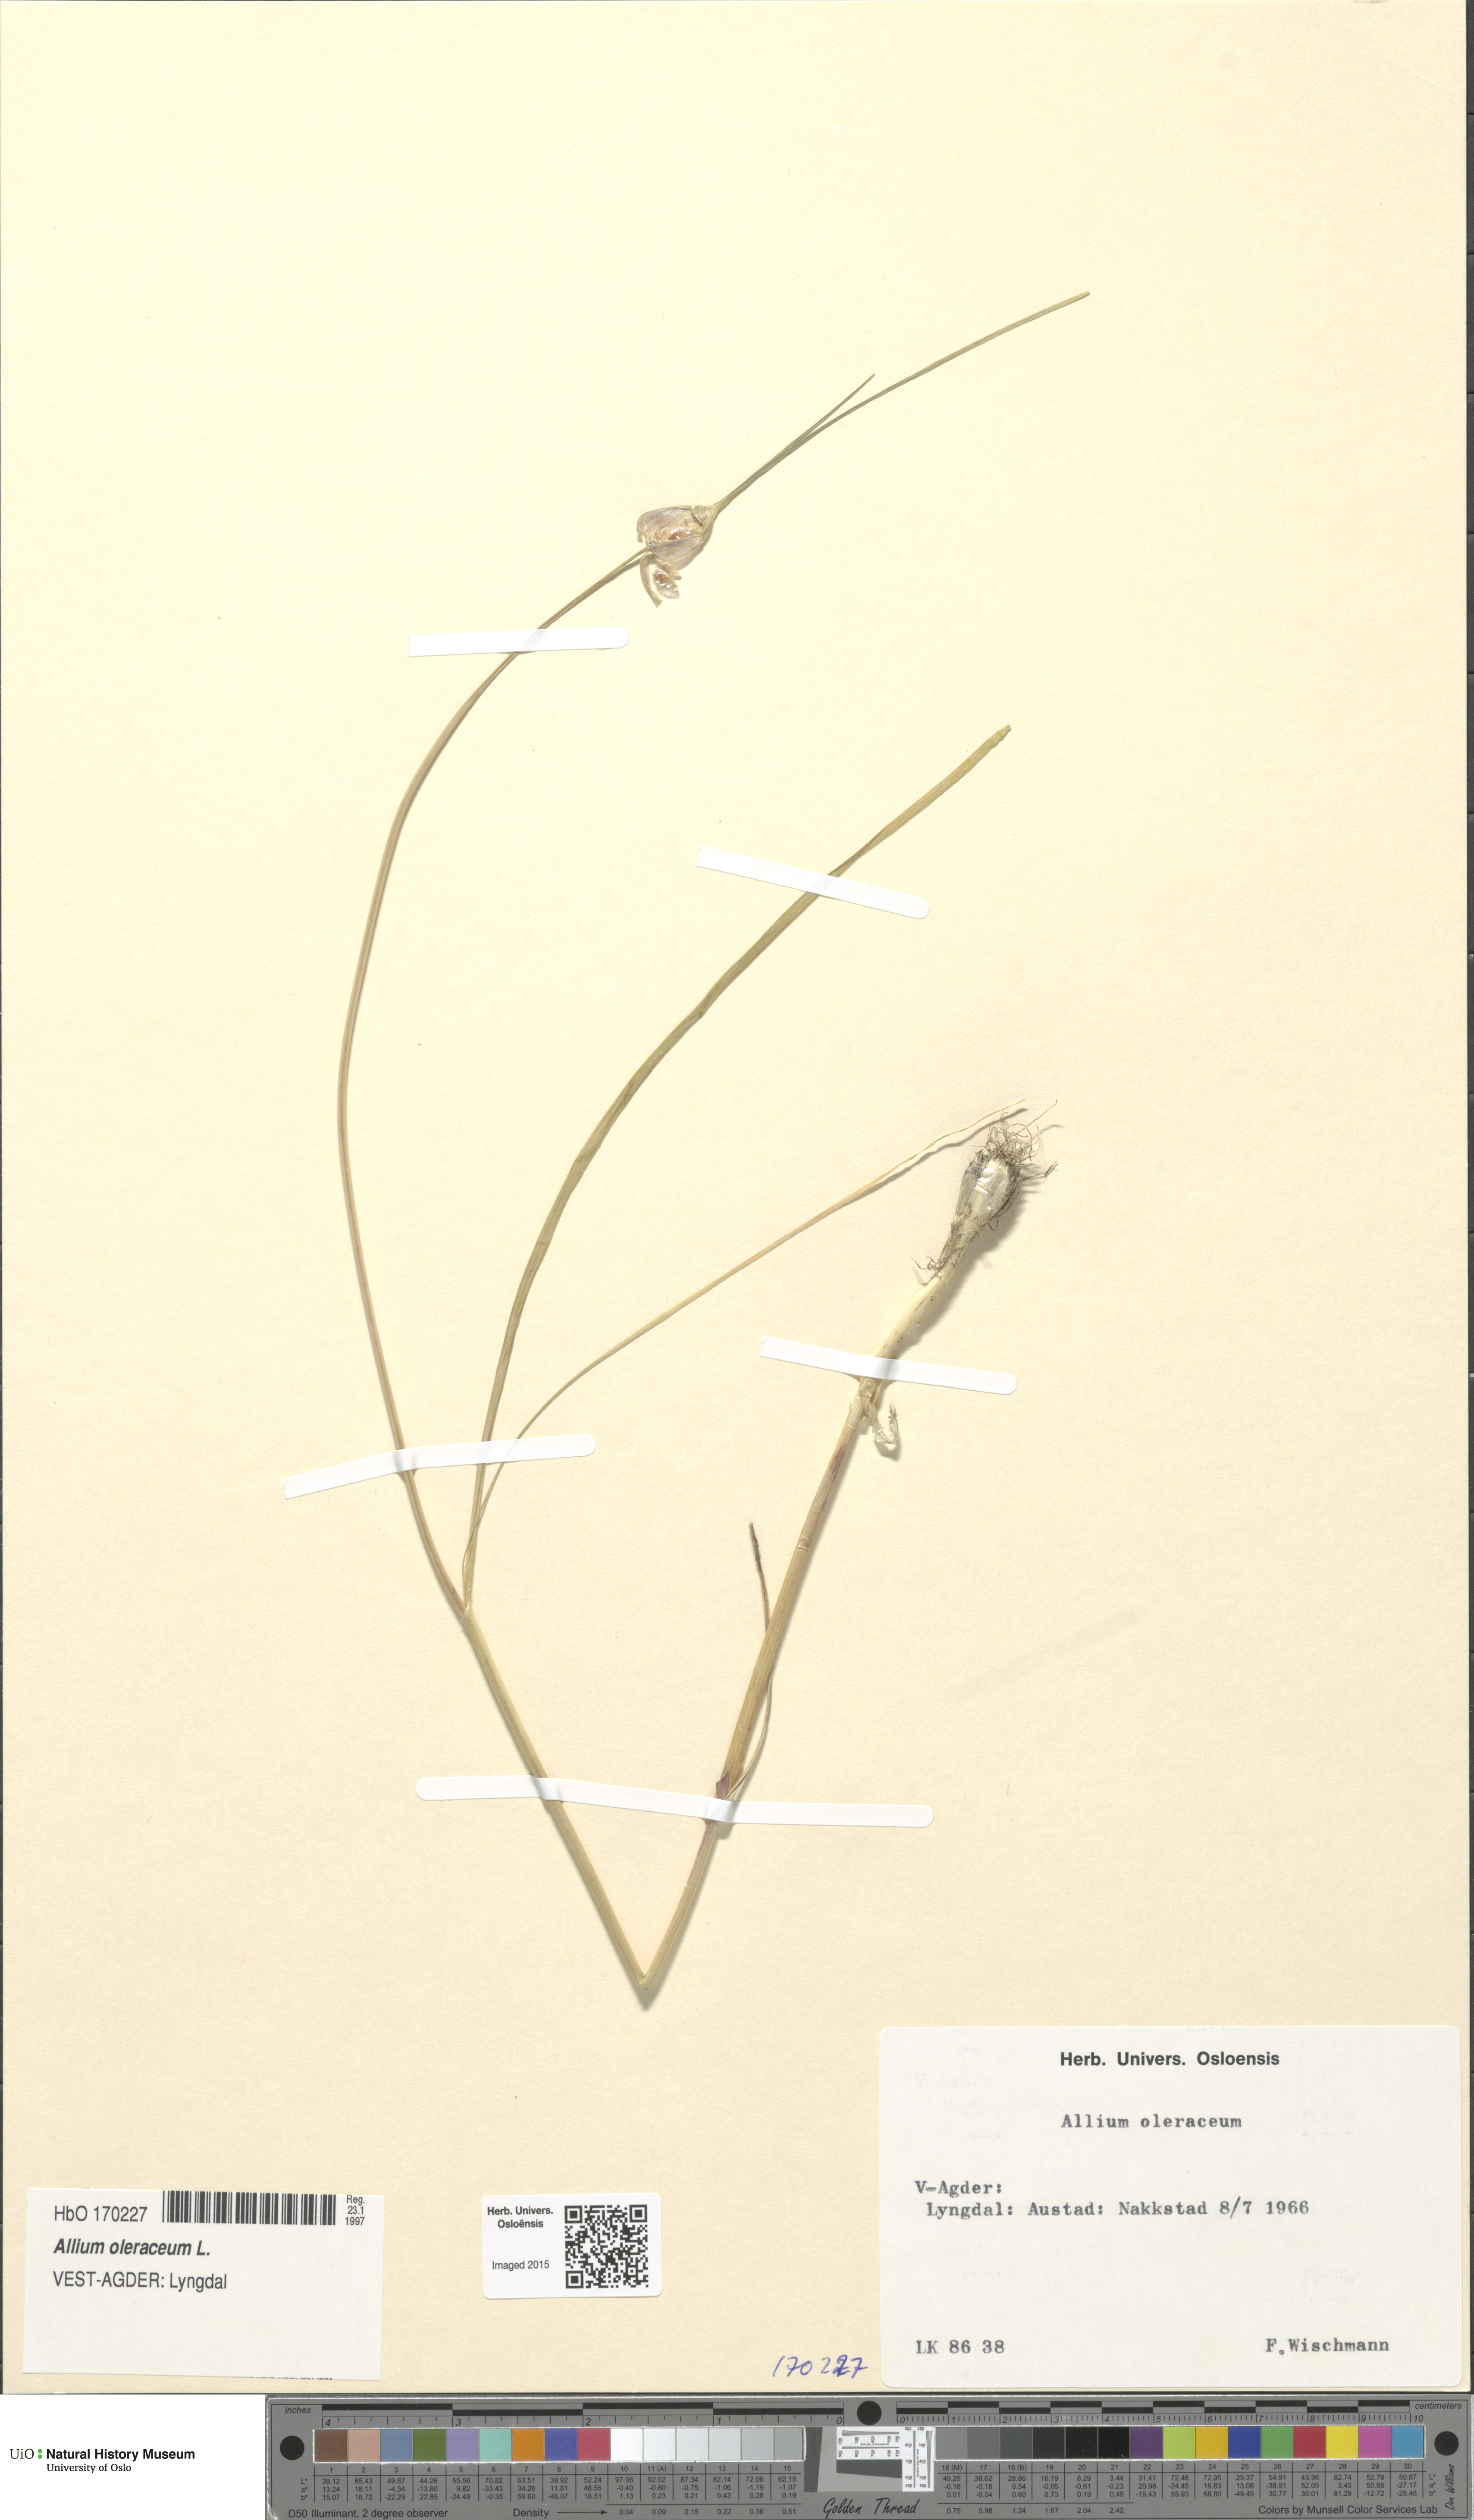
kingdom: Plantae
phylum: Tracheophyta
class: Liliopsida
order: Asparagales
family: Amaryllidaceae
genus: Allium
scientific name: Allium oleraceum
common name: Field garlic
